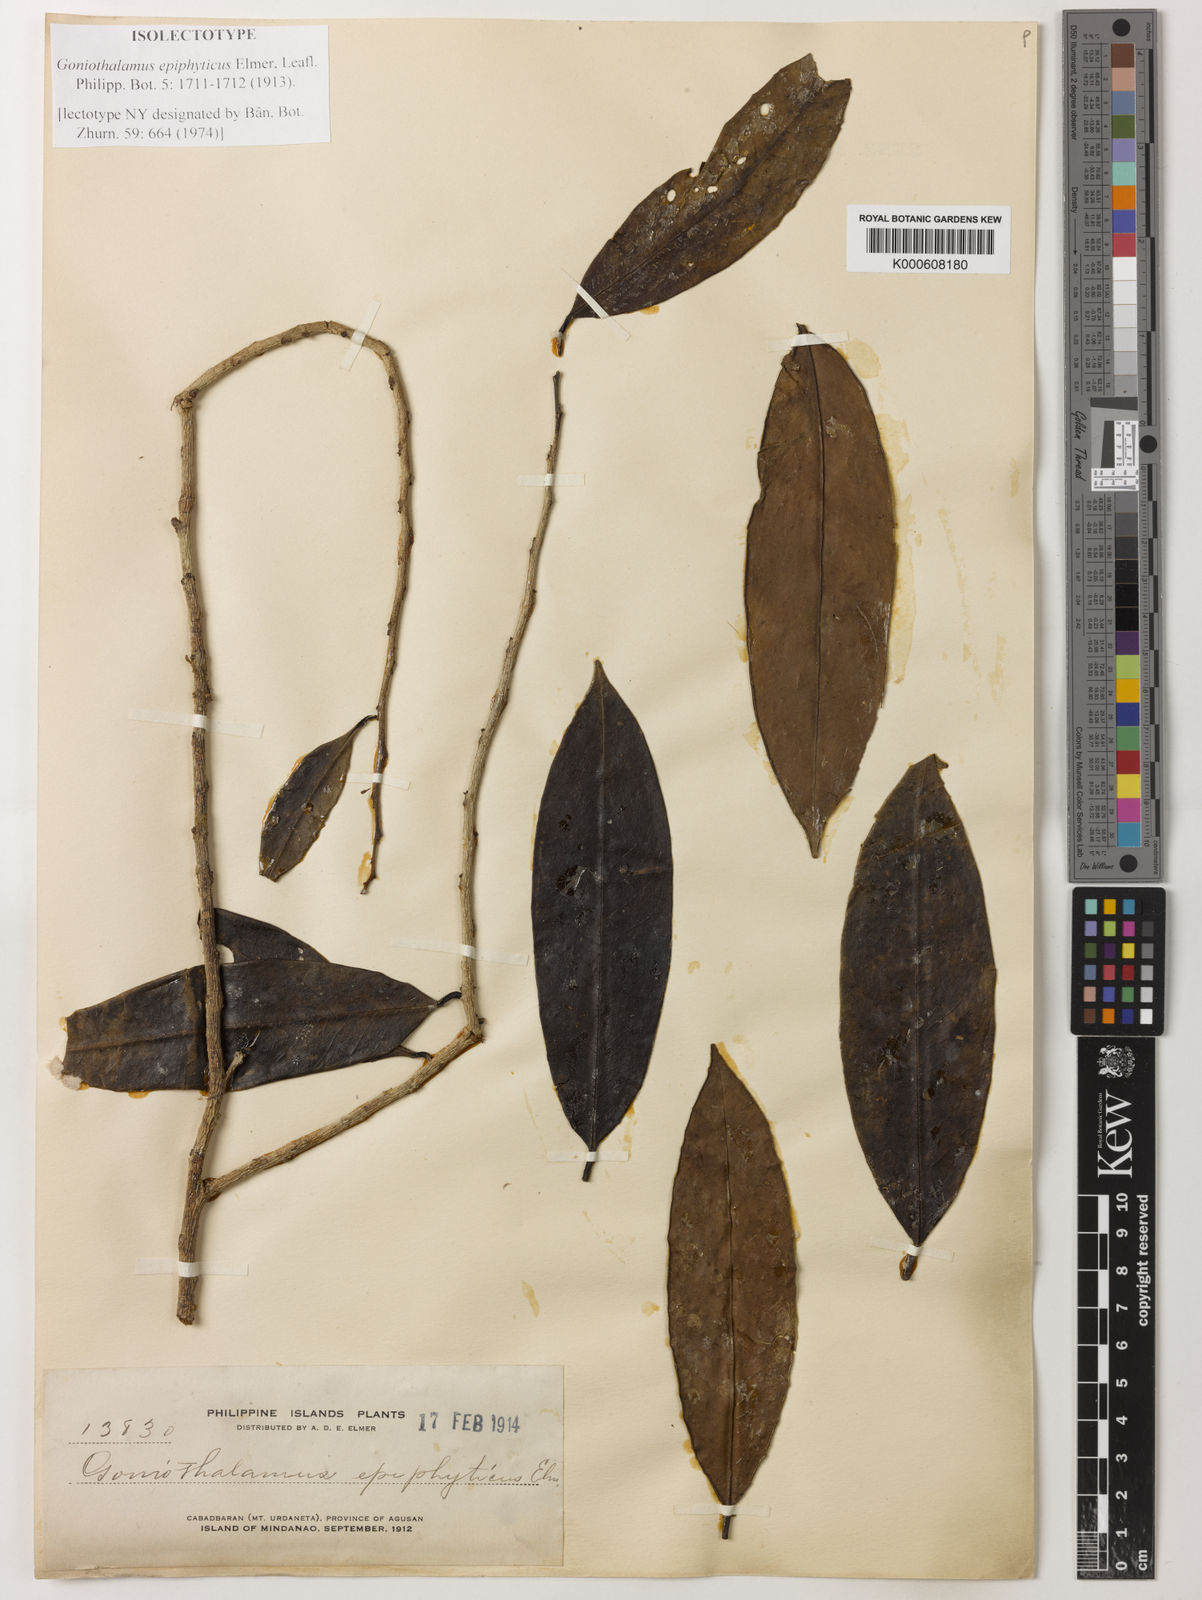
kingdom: Plantae
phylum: Tracheophyta
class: Magnoliopsida
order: Magnoliales
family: Annonaceae
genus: Goniothalamus
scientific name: Goniothalamus epiphyticus
